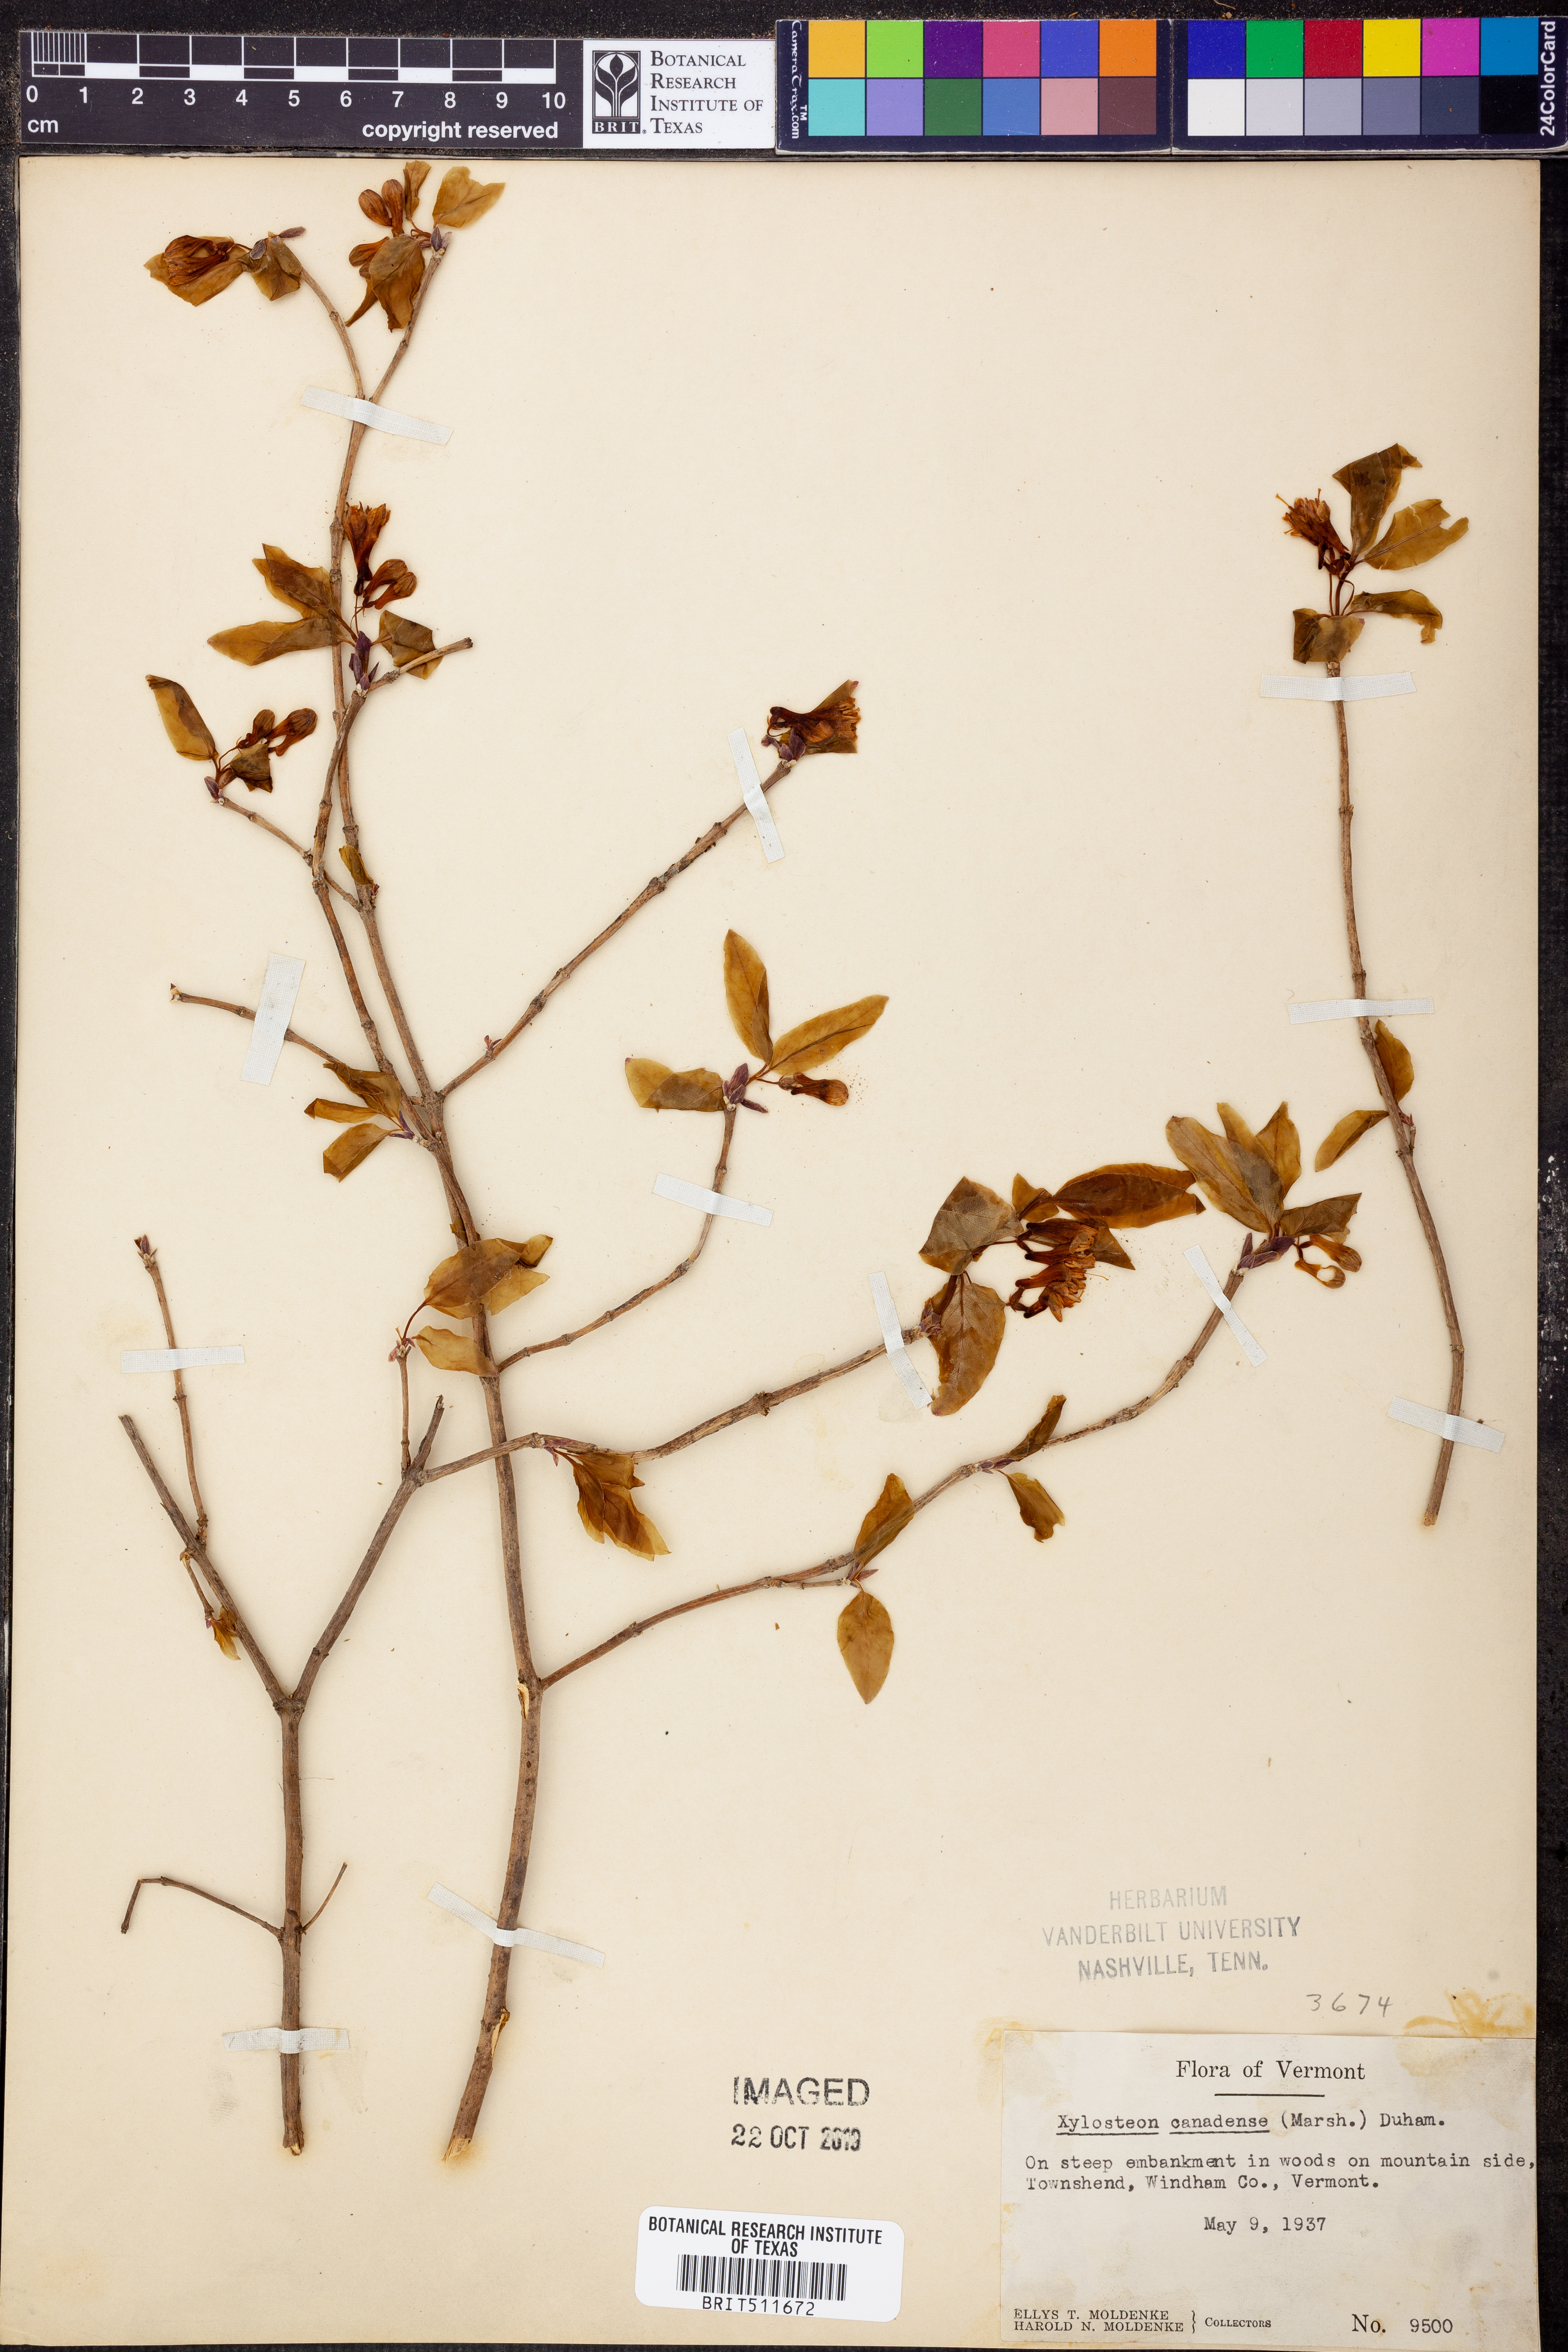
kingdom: Plantae
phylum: Tracheophyta
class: Magnoliopsida
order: Dipsacales
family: Caprifoliaceae
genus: Lonicera
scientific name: Lonicera caerulea
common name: Blue honeysuckle
